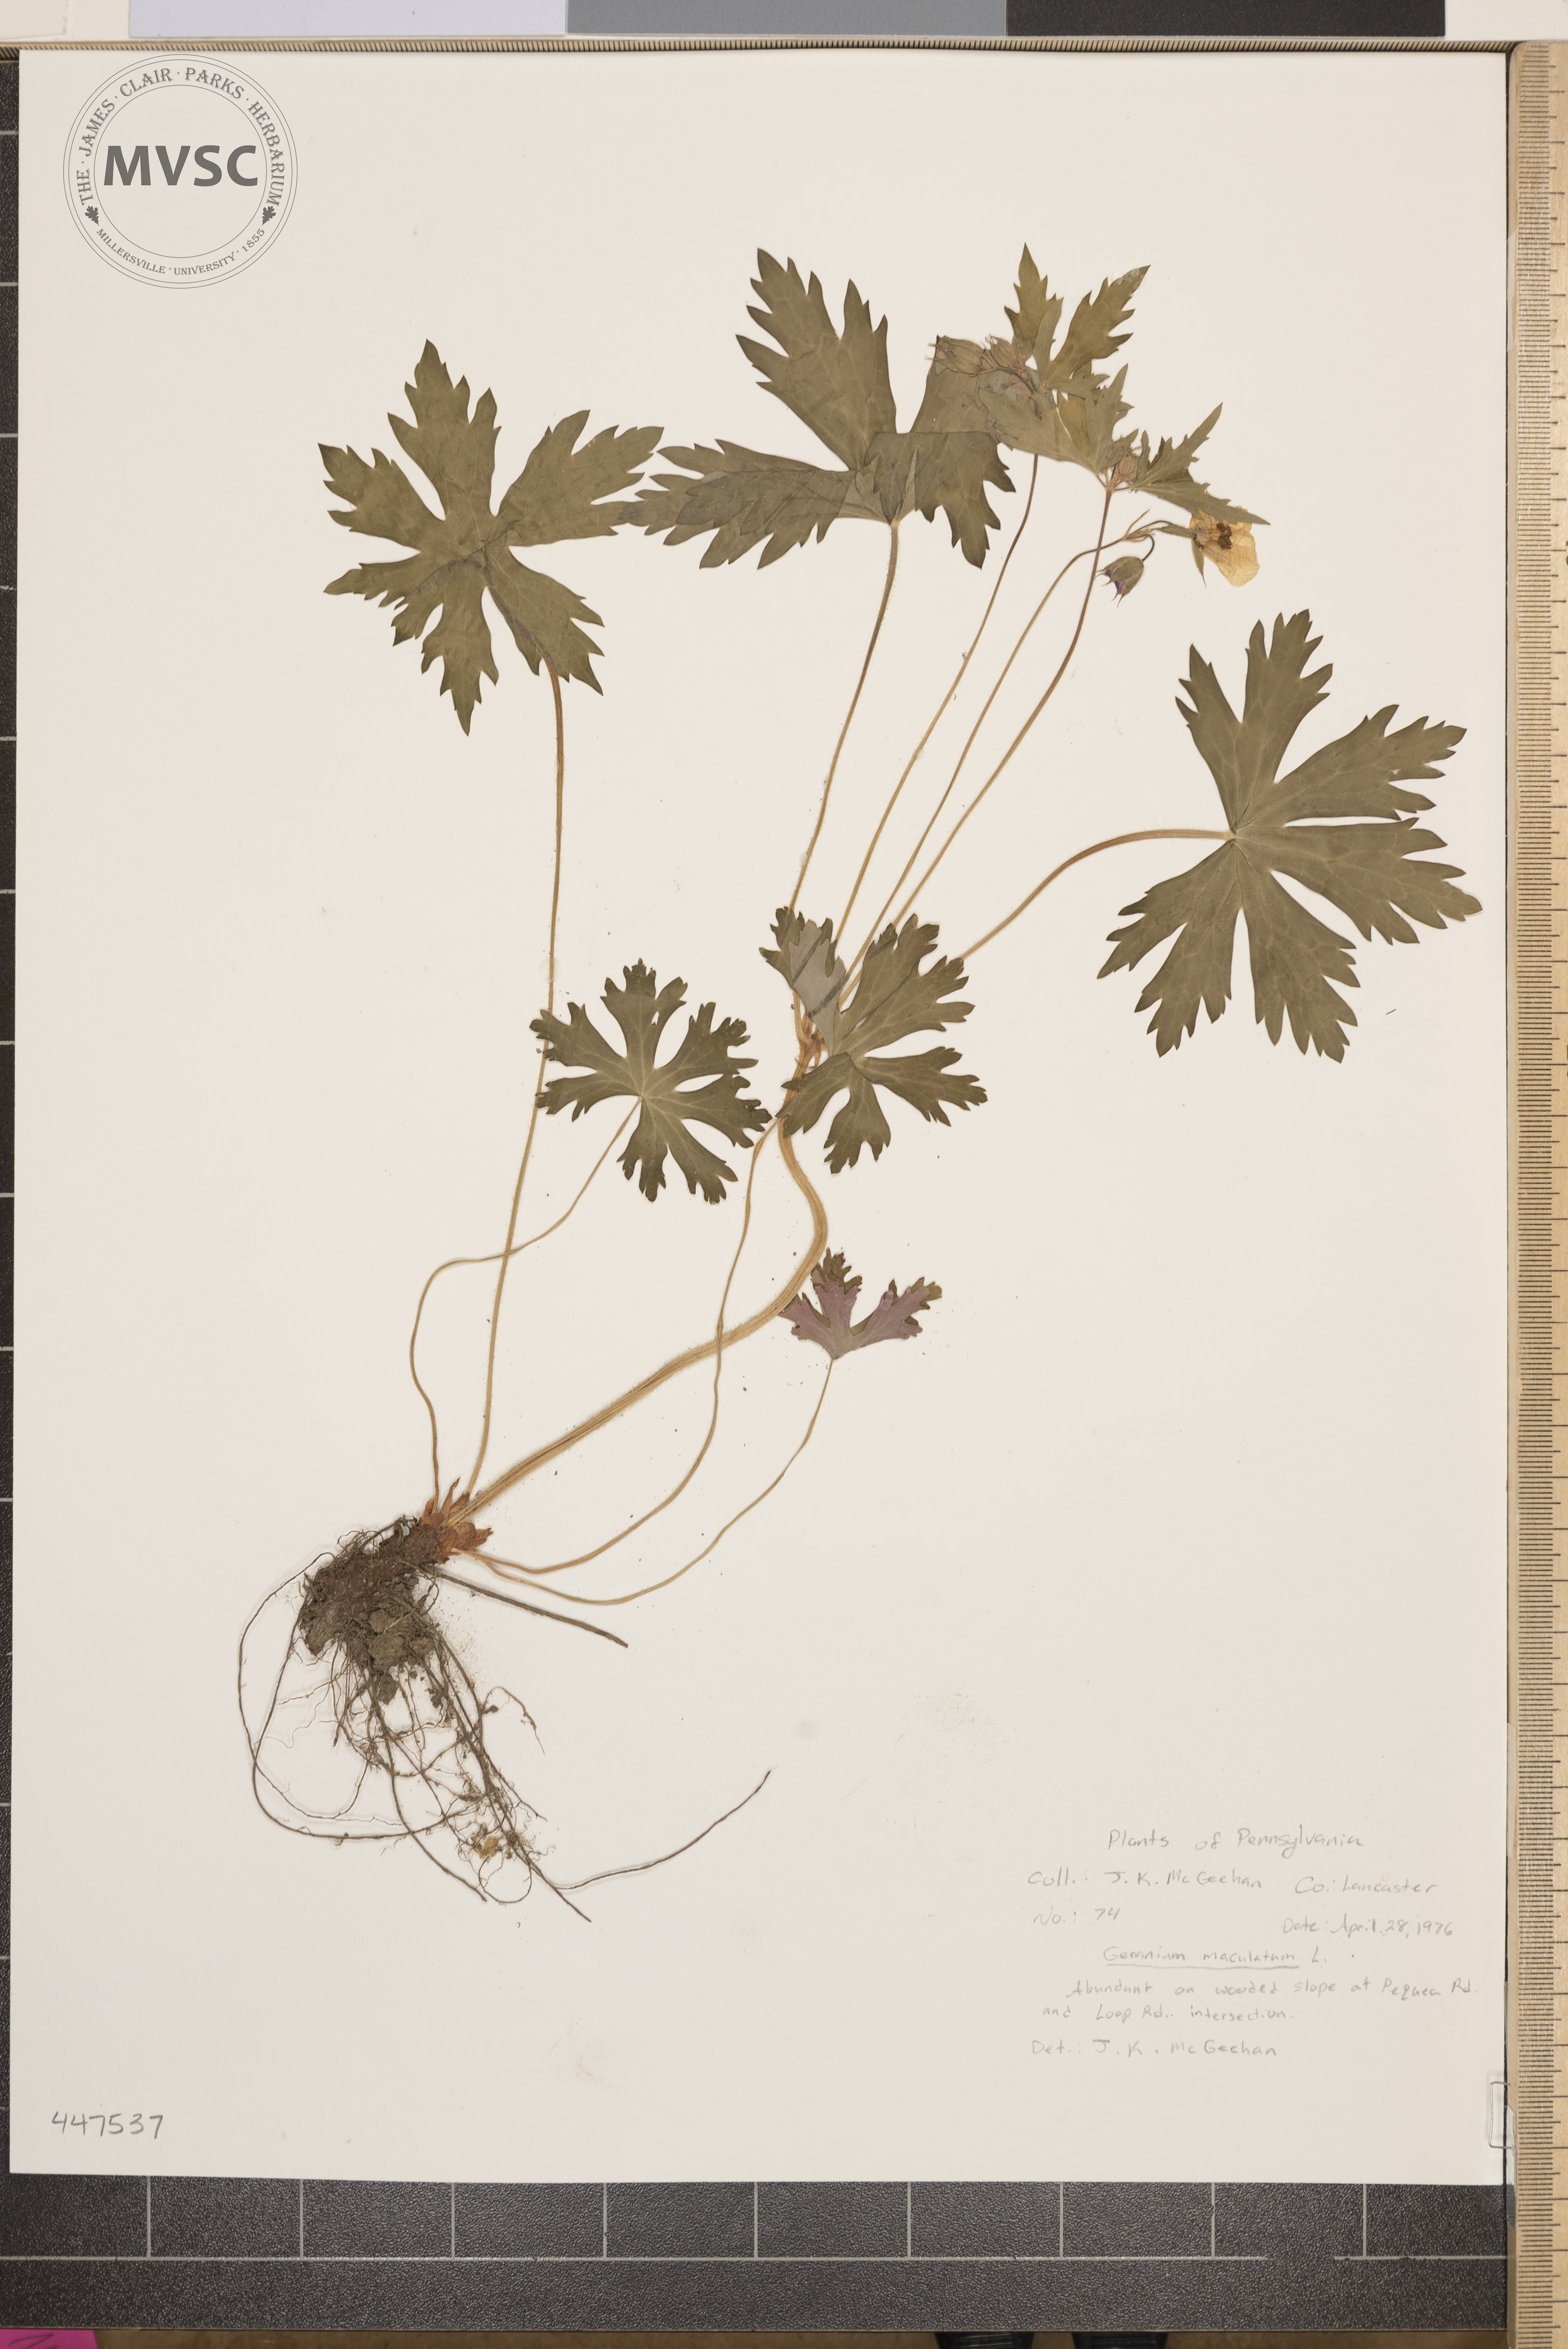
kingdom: Plantae
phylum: Tracheophyta
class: Magnoliopsida
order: Geraniales
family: Geraniaceae
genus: Geranium
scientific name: Geranium maculatum
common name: Spotted geranium
